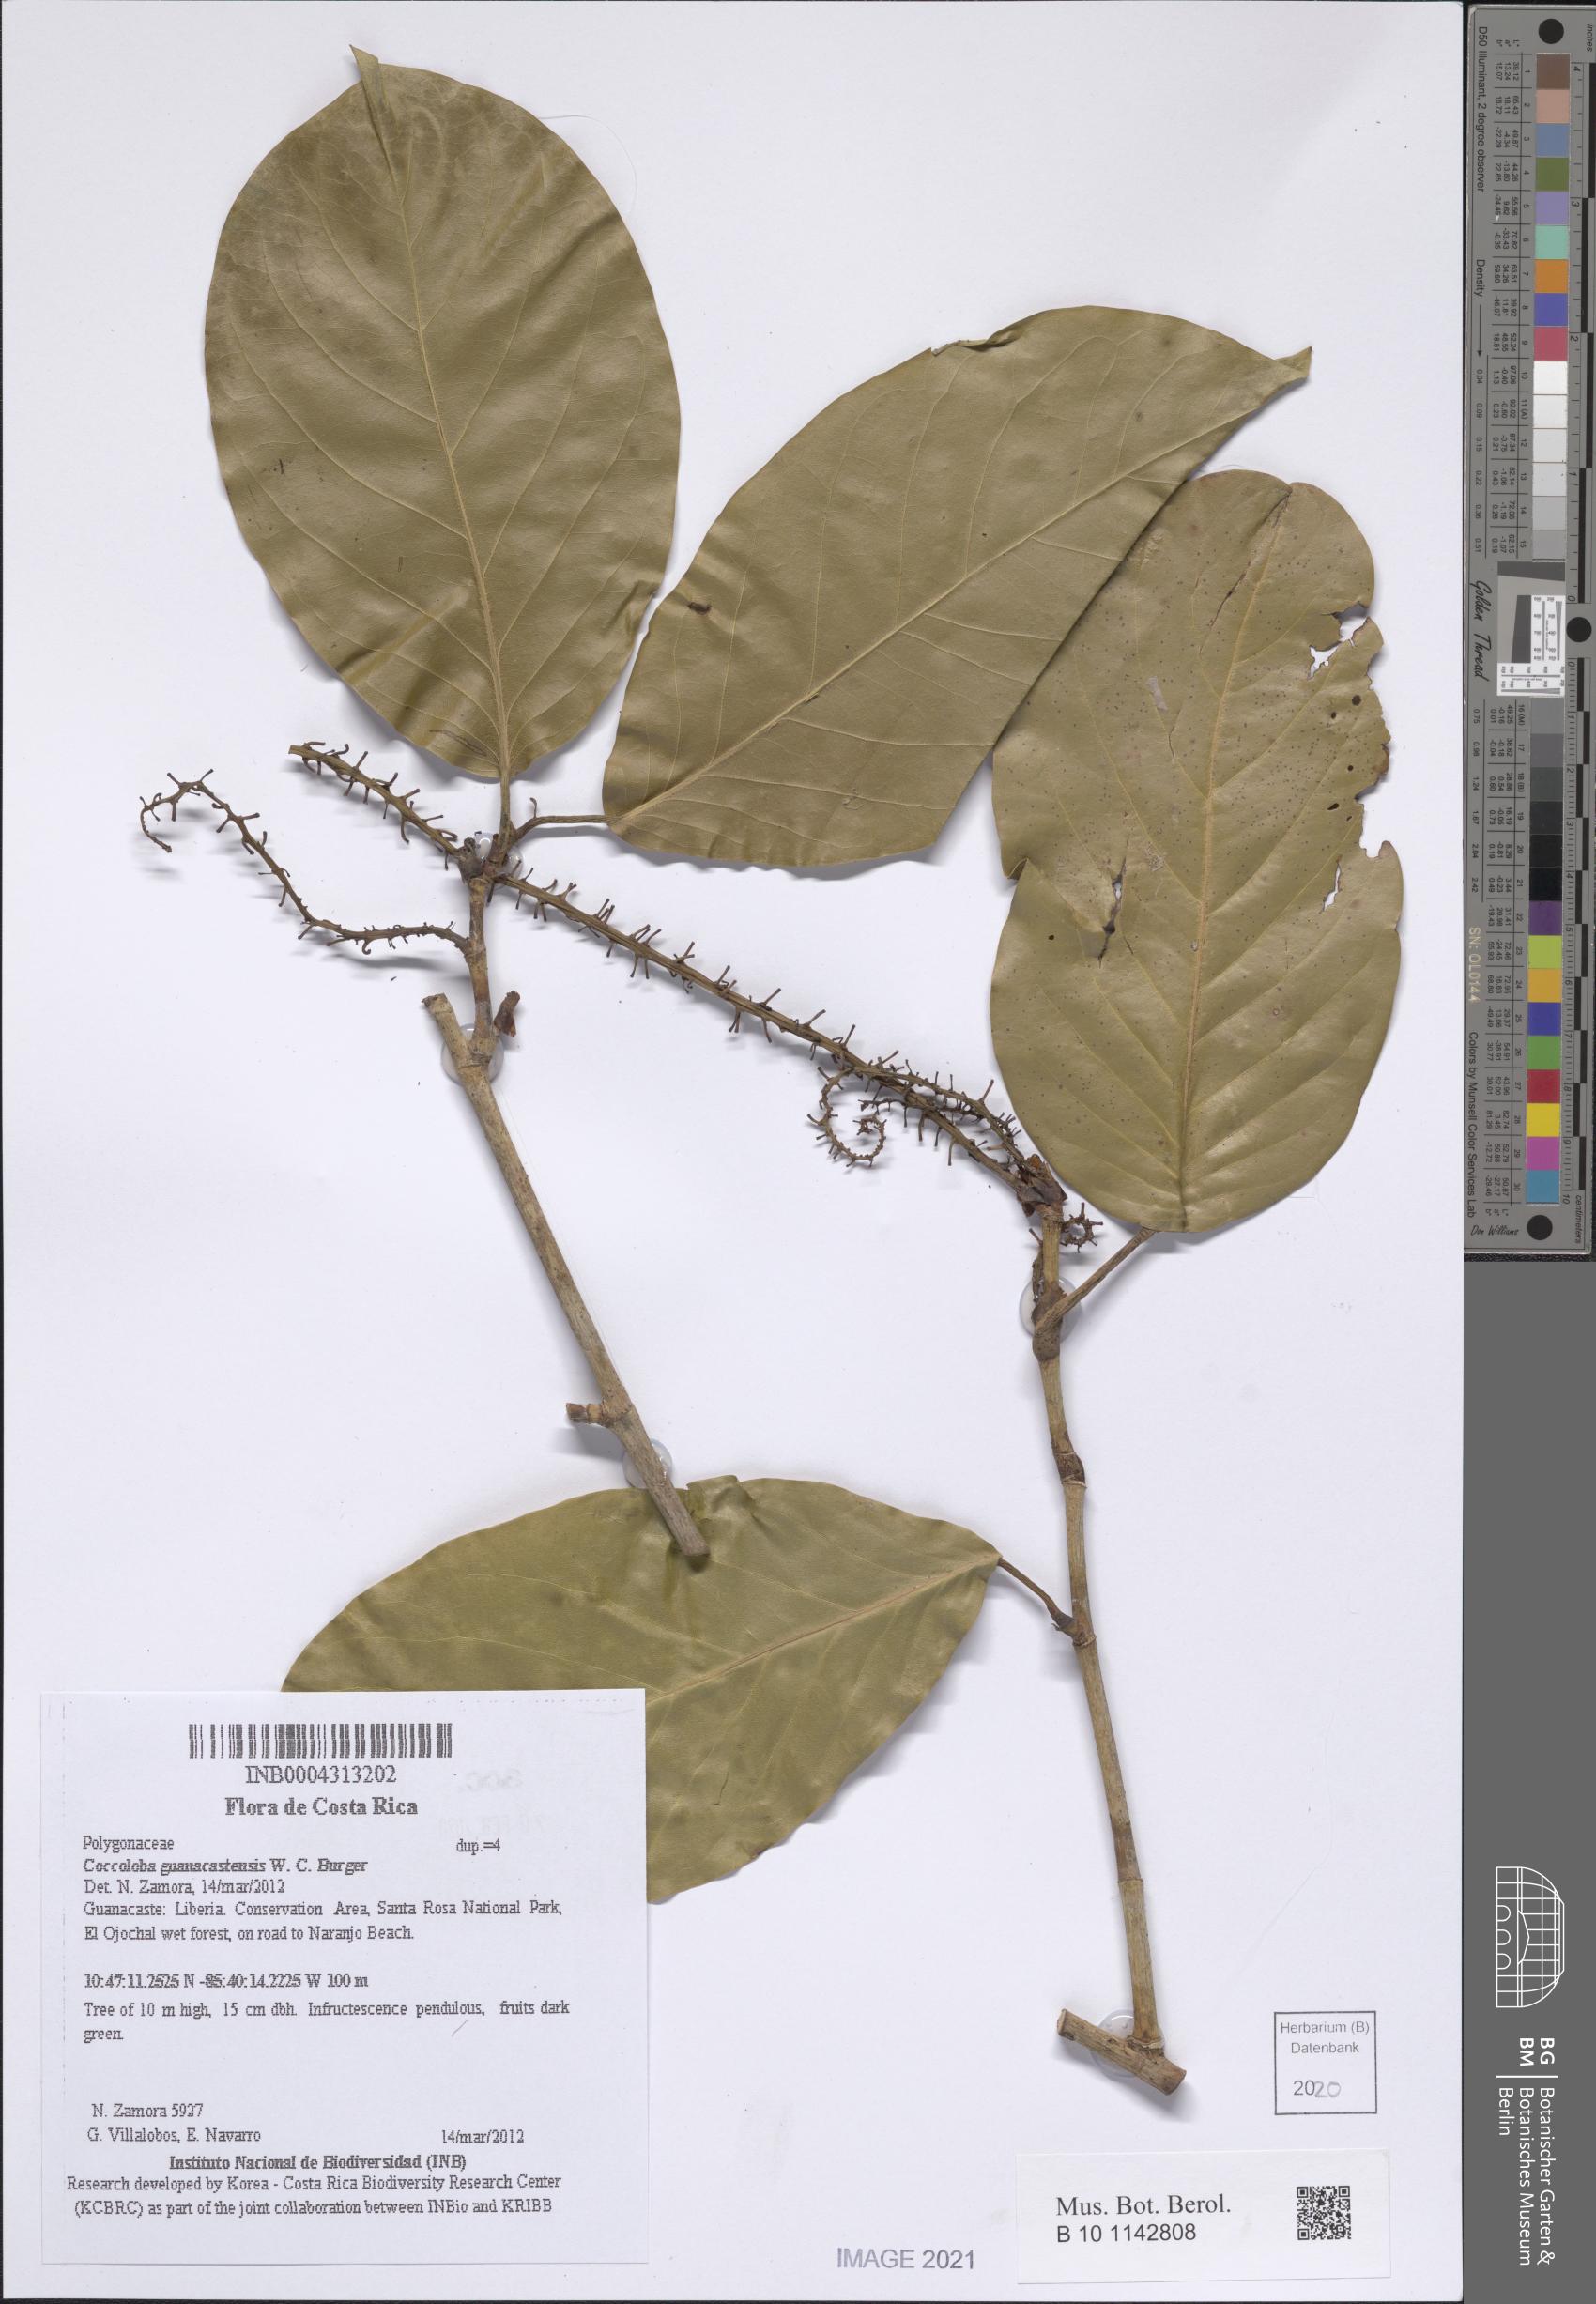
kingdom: Plantae
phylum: Tracheophyta
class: Magnoliopsida
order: Caryophyllales
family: Polygonaceae
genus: Coccoloba
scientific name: Coccoloba guanacastensis
